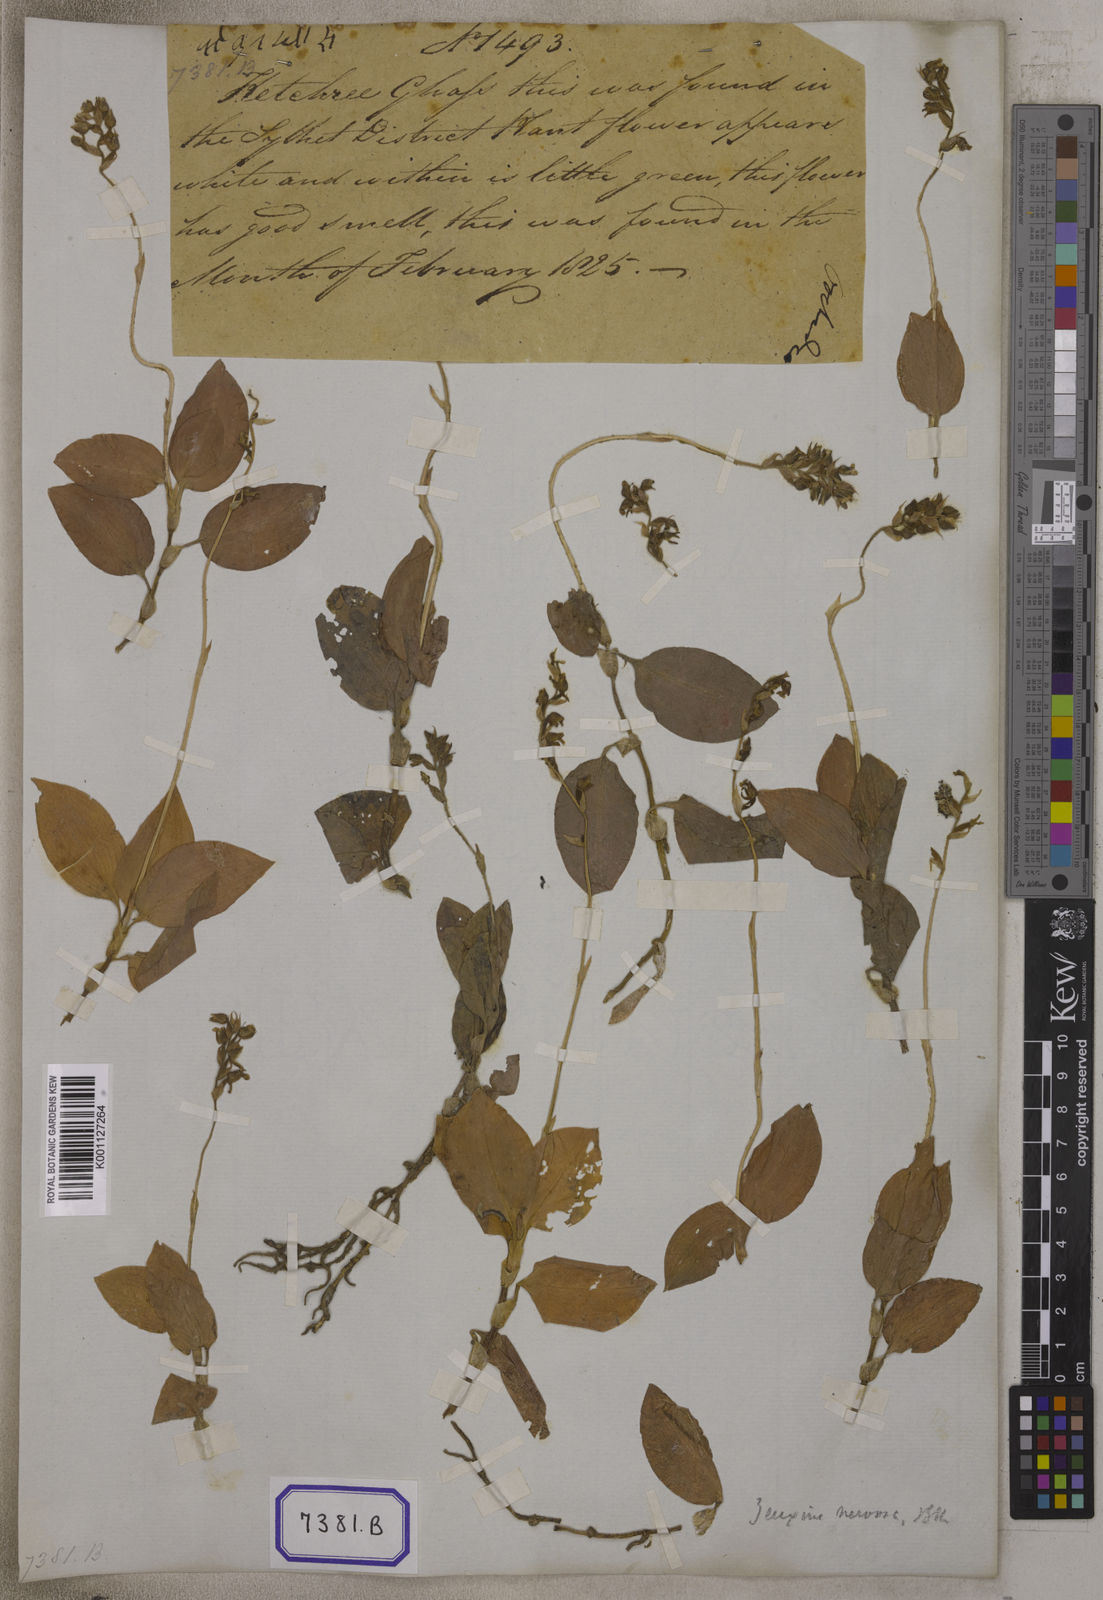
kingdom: Plantae
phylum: Tracheophyta
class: Liliopsida
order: Asparagales
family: Orchidaceae
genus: Hetaeria
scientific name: Hetaeria
